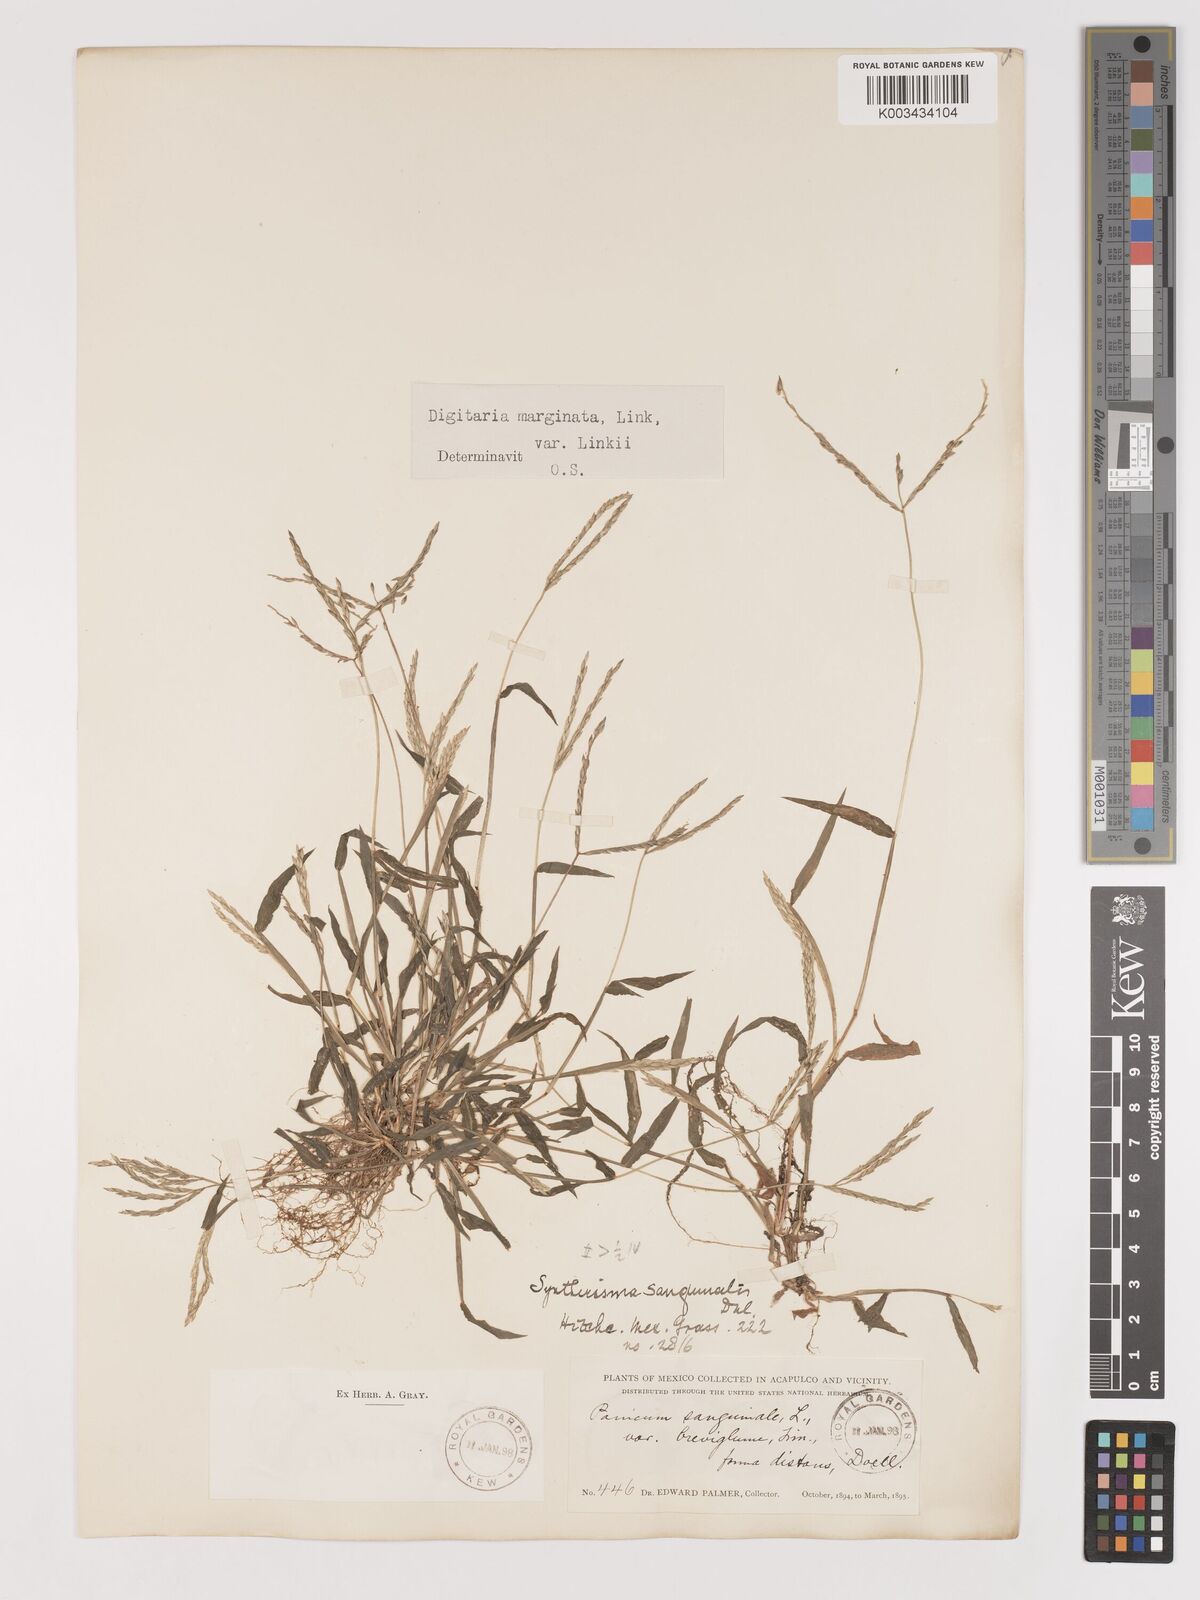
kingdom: Plantae
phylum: Tracheophyta
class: Liliopsida
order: Poales
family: Poaceae
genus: Digitaria
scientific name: Digitaria ciliaris
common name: Tropical finger-grass
